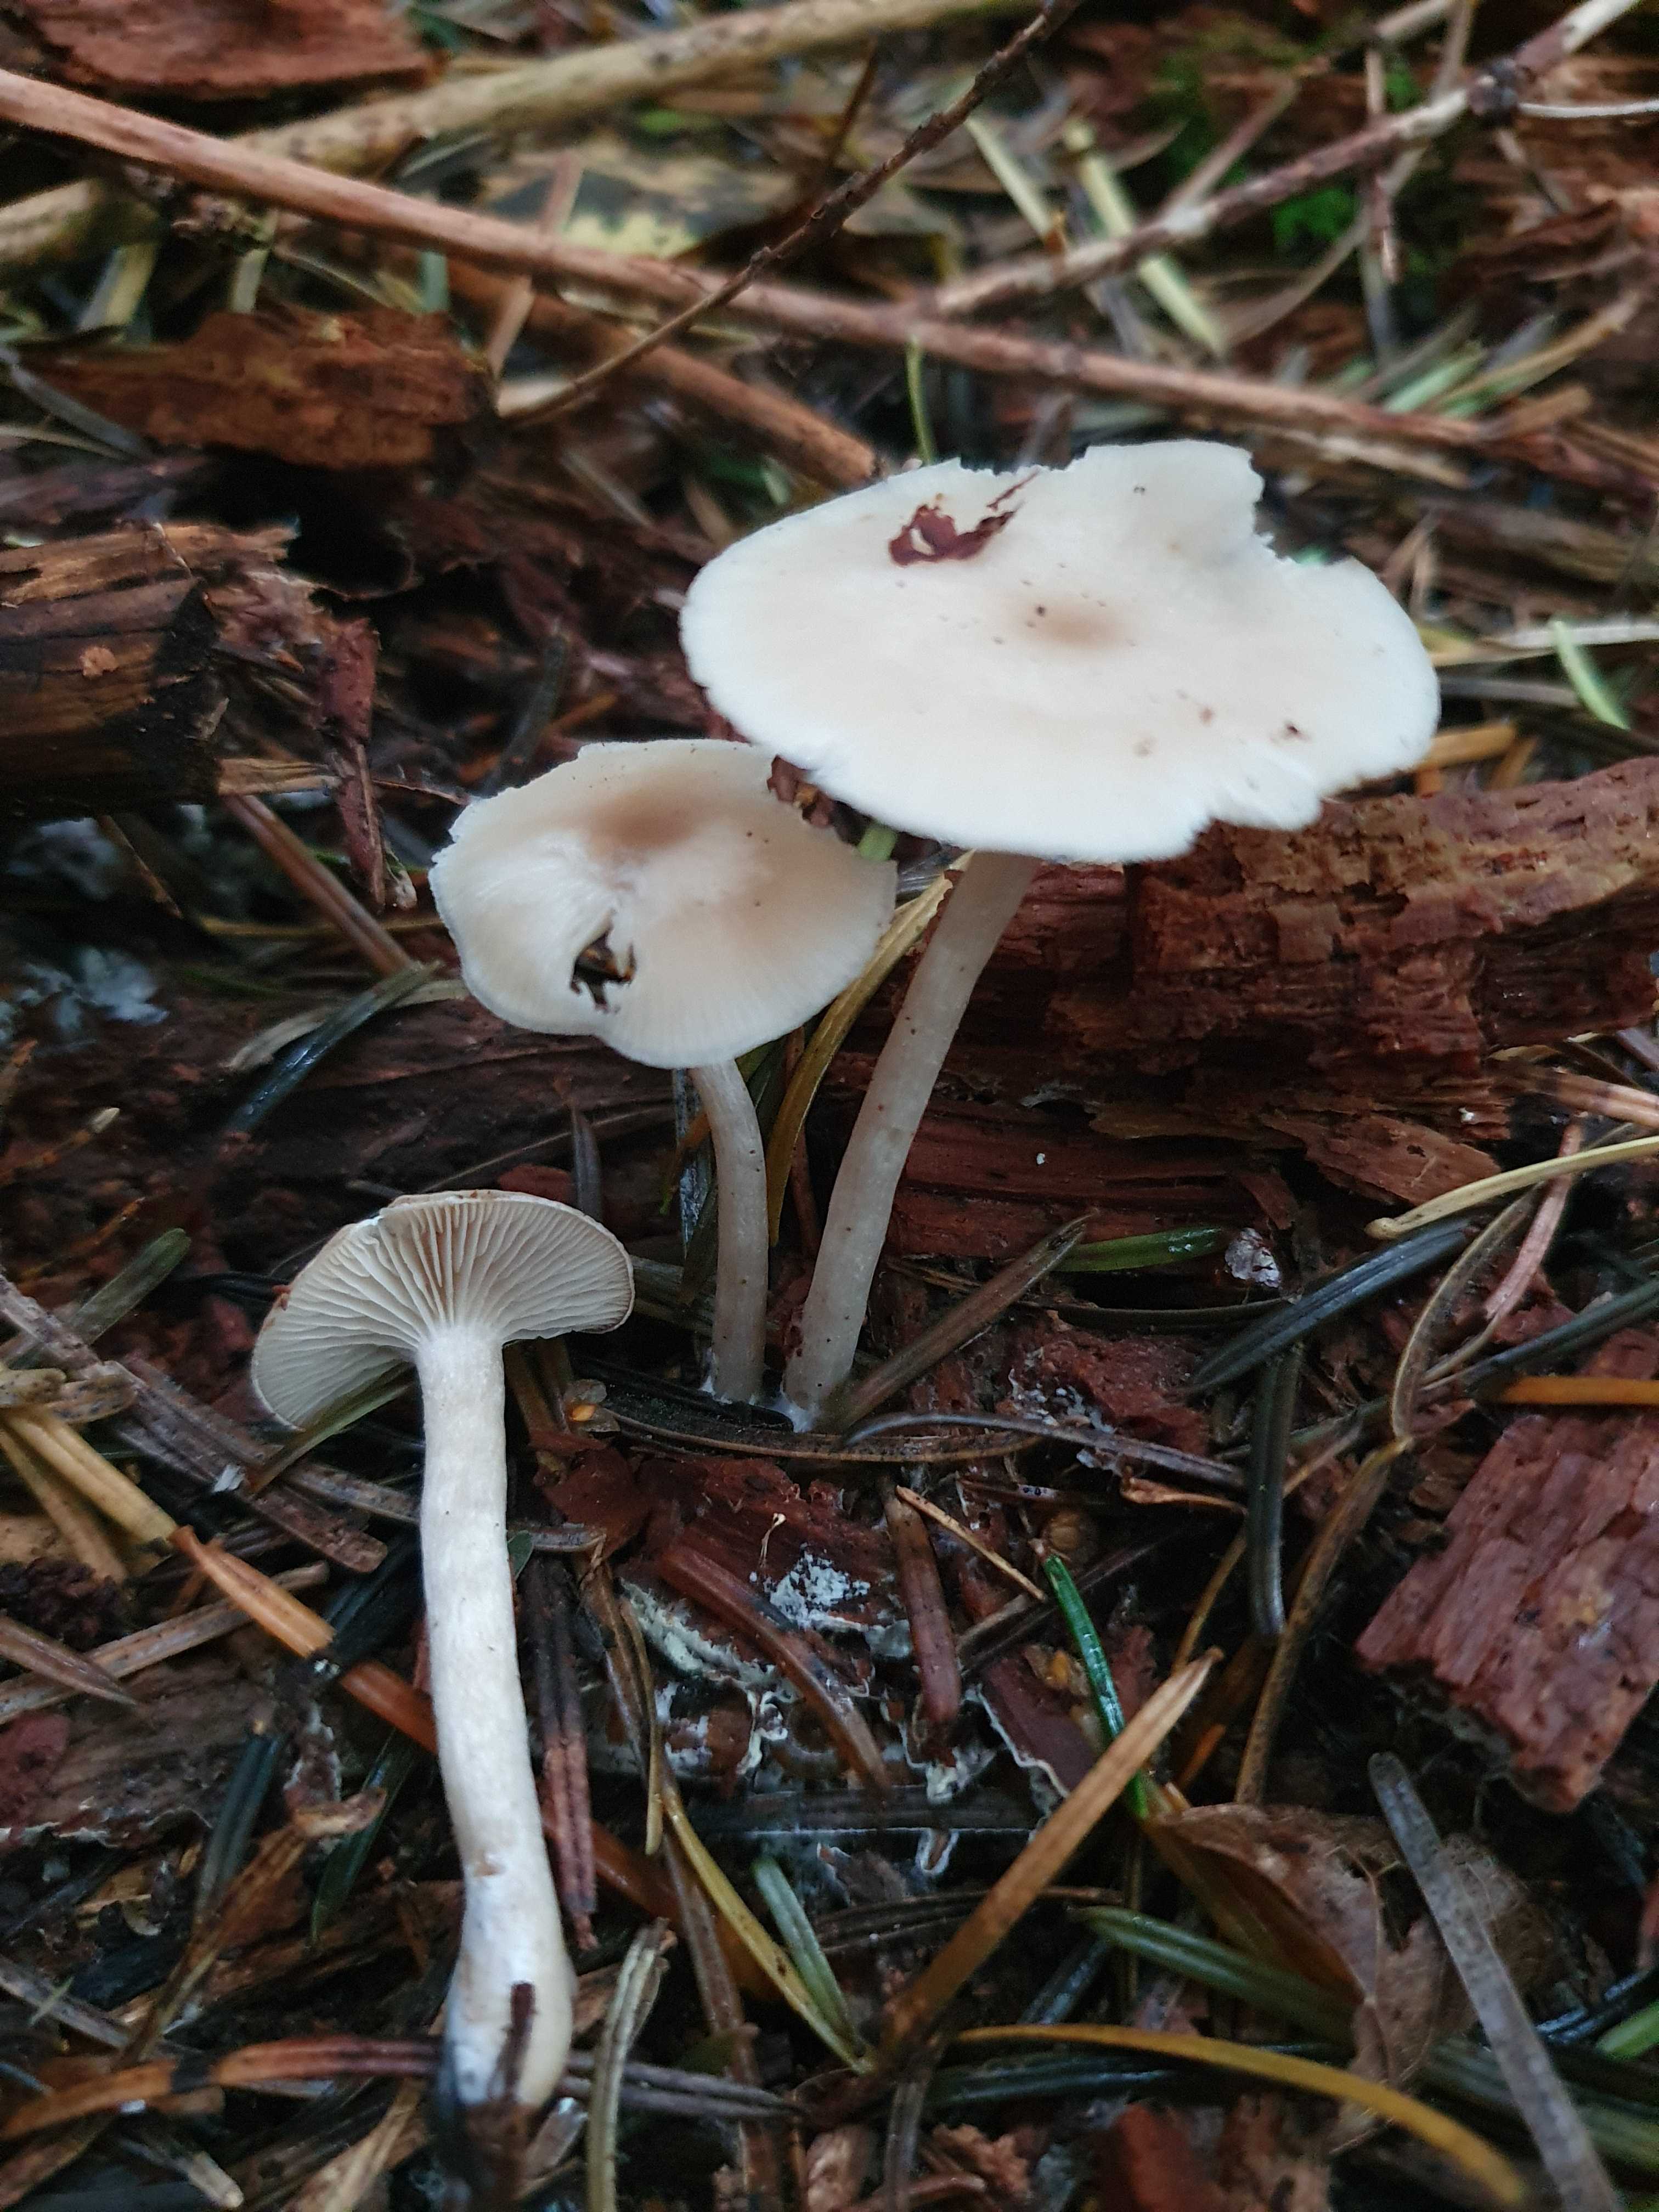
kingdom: Fungi
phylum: Basidiomycota
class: Agaricomycetes
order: Agaricales
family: Tricholomataceae
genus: Clitocybe
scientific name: Clitocybe fragrans
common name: vellugtende tragthat
